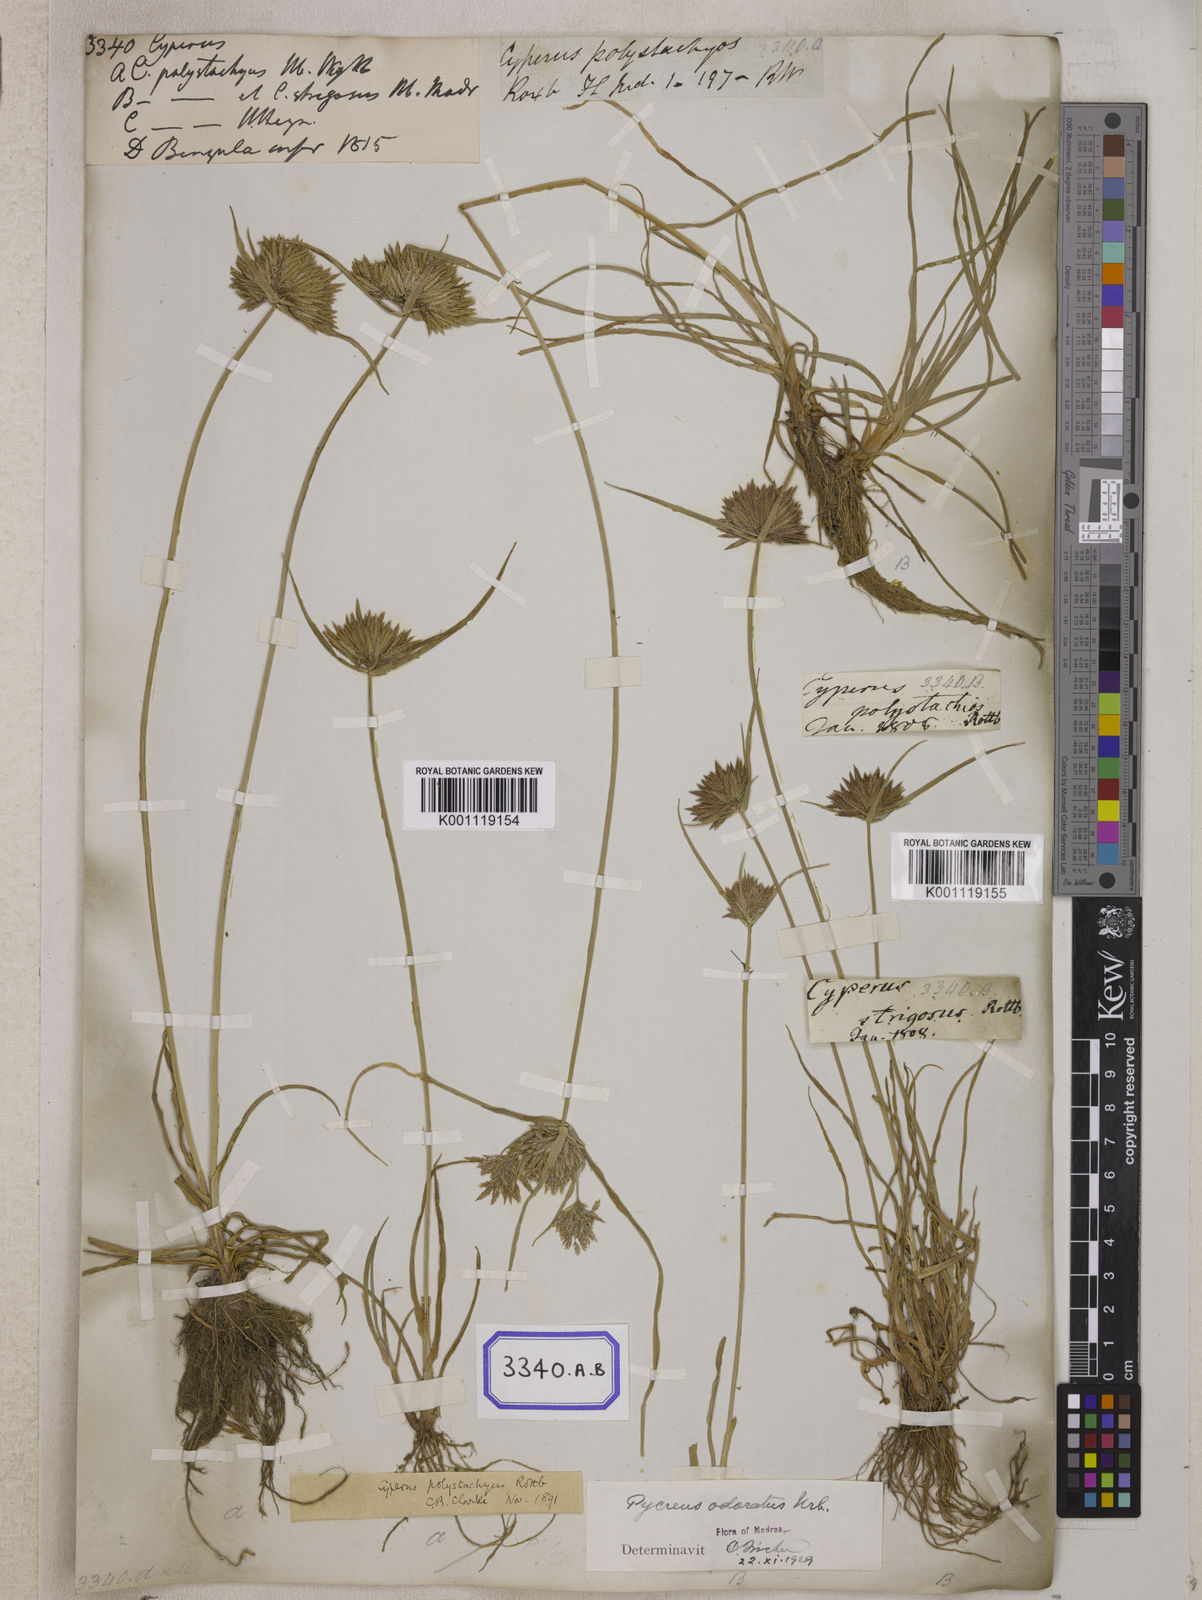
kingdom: Plantae
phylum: Tracheophyta
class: Liliopsida
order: Poales
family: Cyperaceae
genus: Cyperus
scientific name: Cyperus
